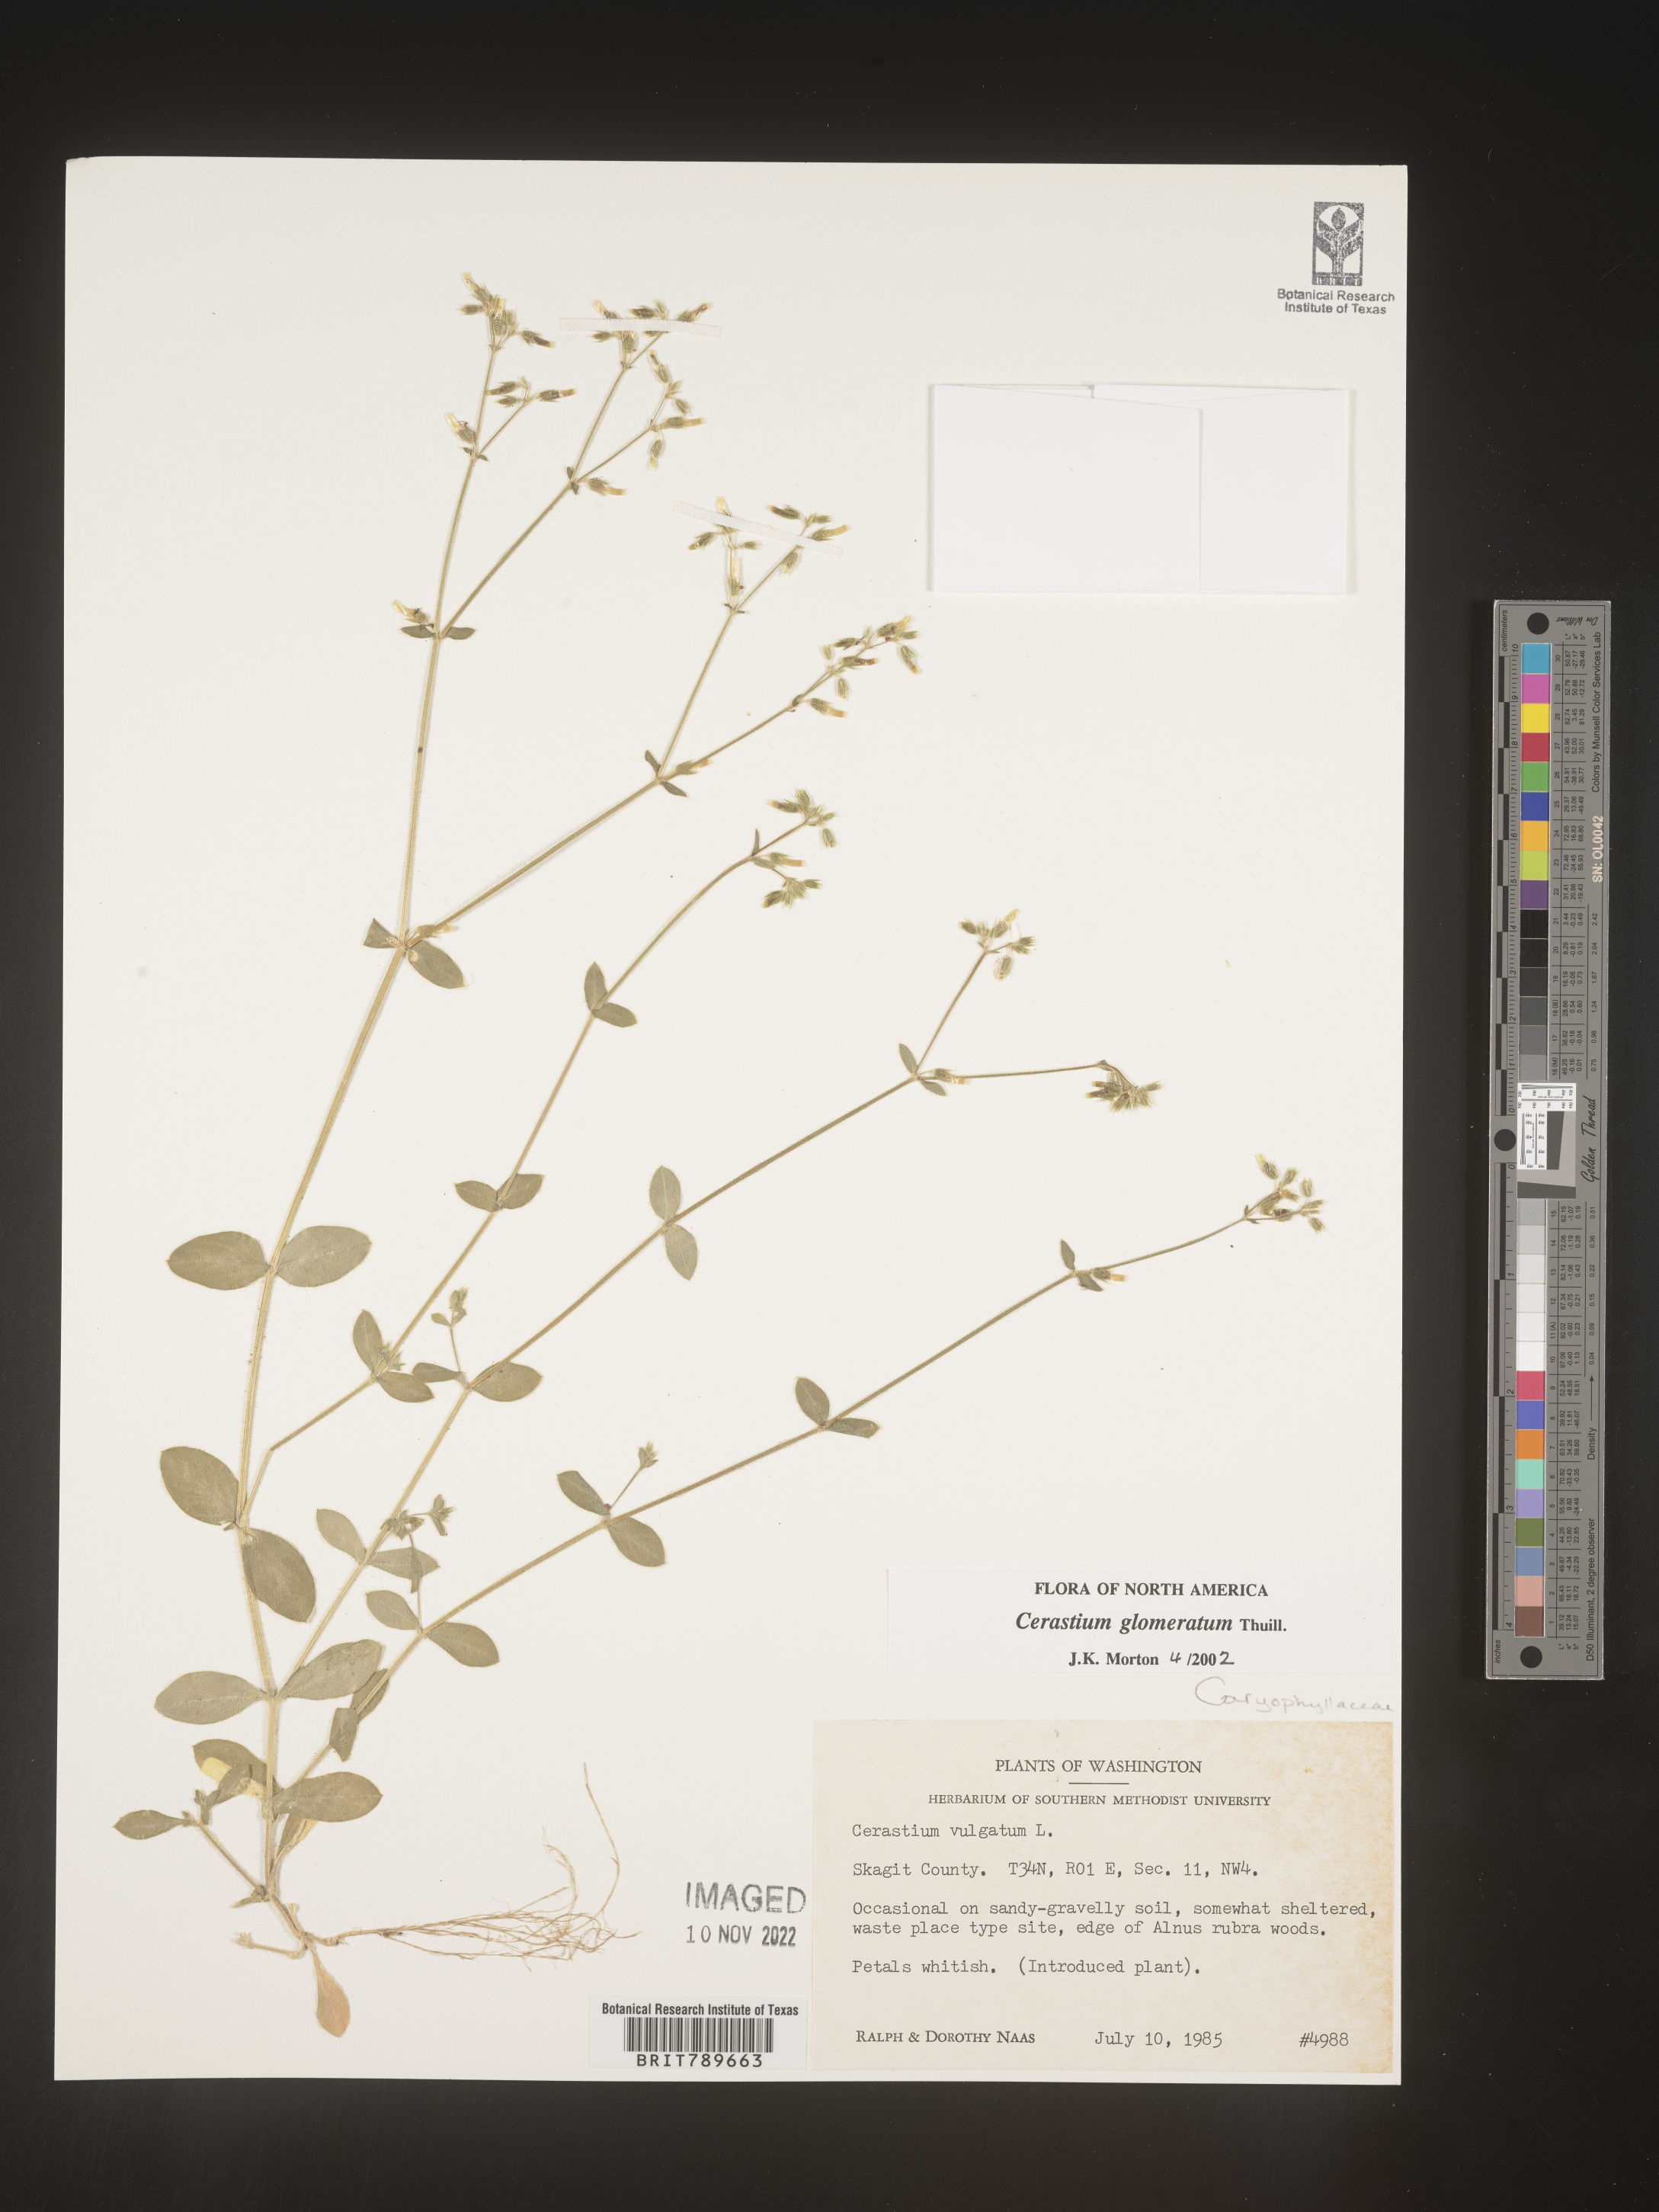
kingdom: Plantae
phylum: Tracheophyta
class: Magnoliopsida
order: Caryophyllales
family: Caryophyllaceae
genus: Cerastium
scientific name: Cerastium glomeratum
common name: Sticky chickweed
